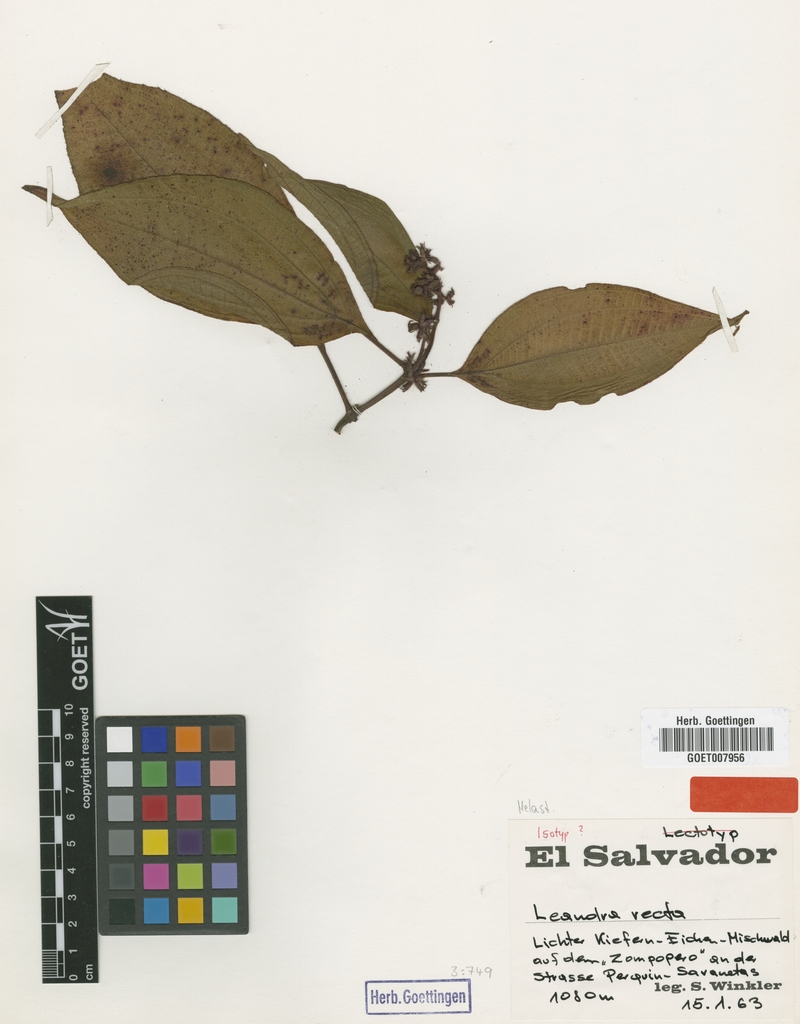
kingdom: Plantae
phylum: Tracheophyta
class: Magnoliopsida
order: Myrtales
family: Melastomataceae
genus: Miconia
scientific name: Miconia oocarpa
